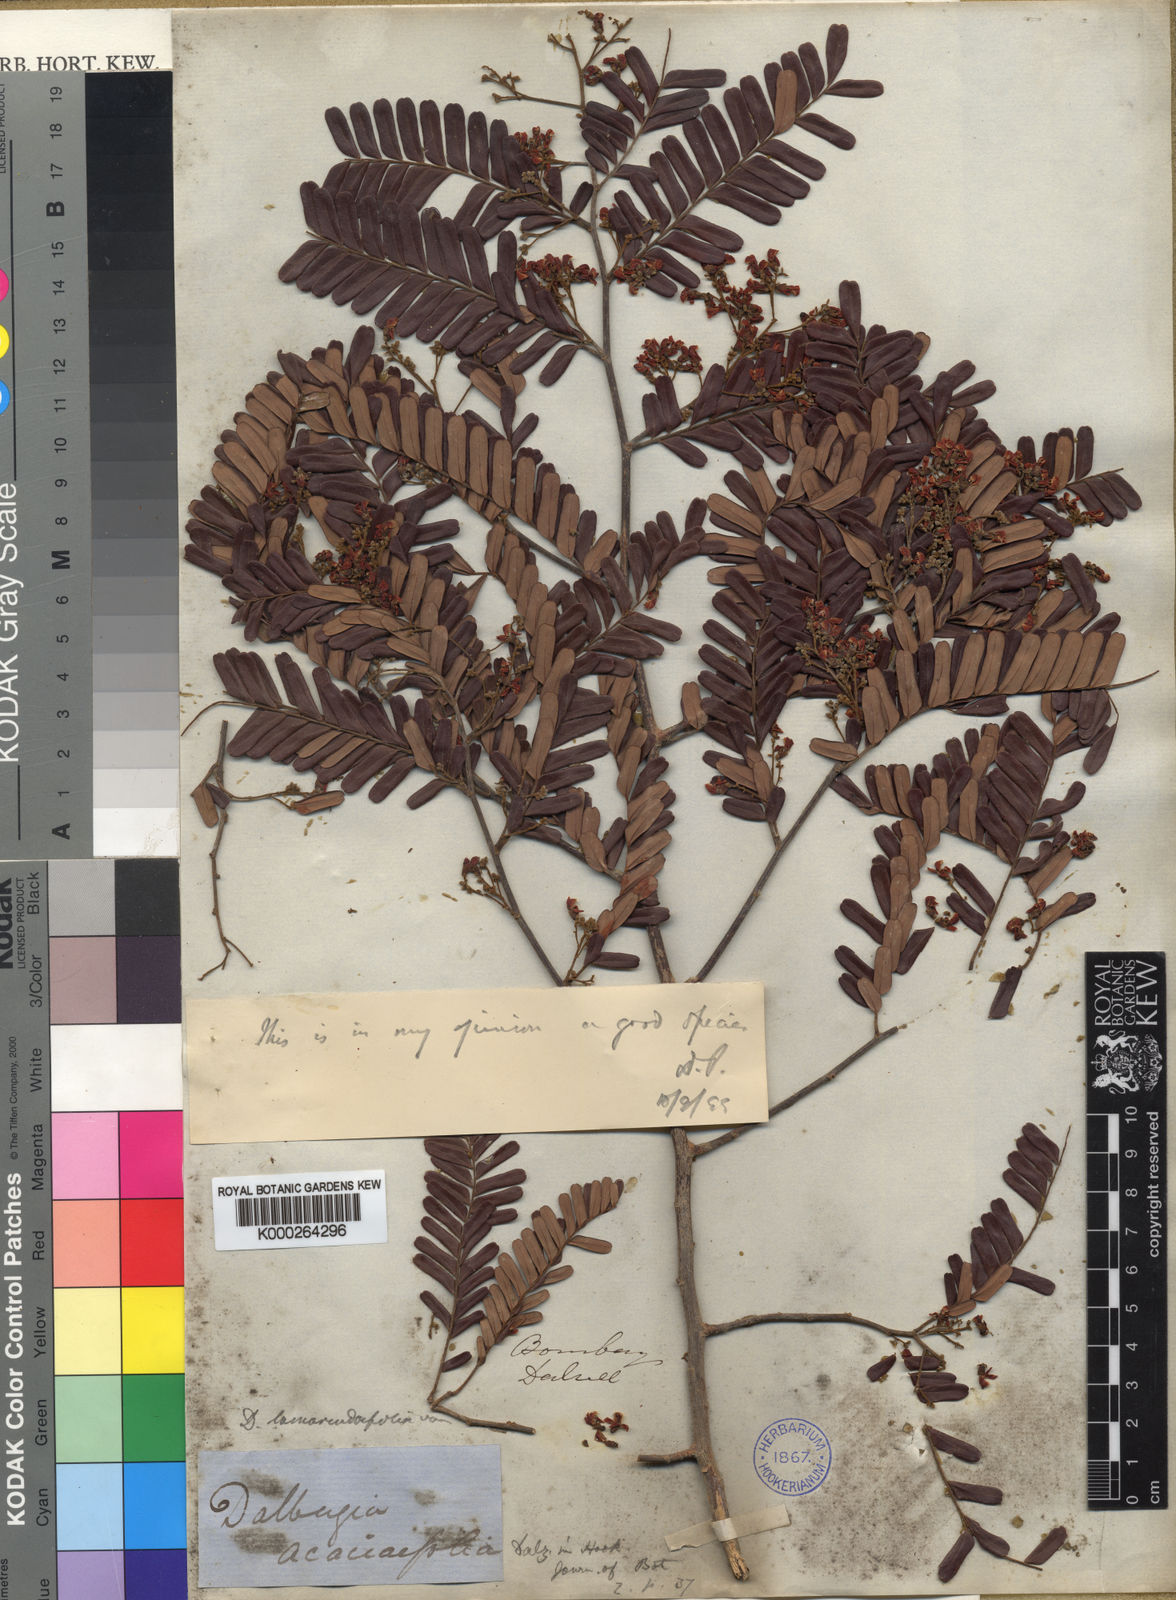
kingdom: Plantae
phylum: Tracheophyta
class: Magnoliopsida
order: Fabales
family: Fabaceae
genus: Dalbergia
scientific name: Dalbergia
